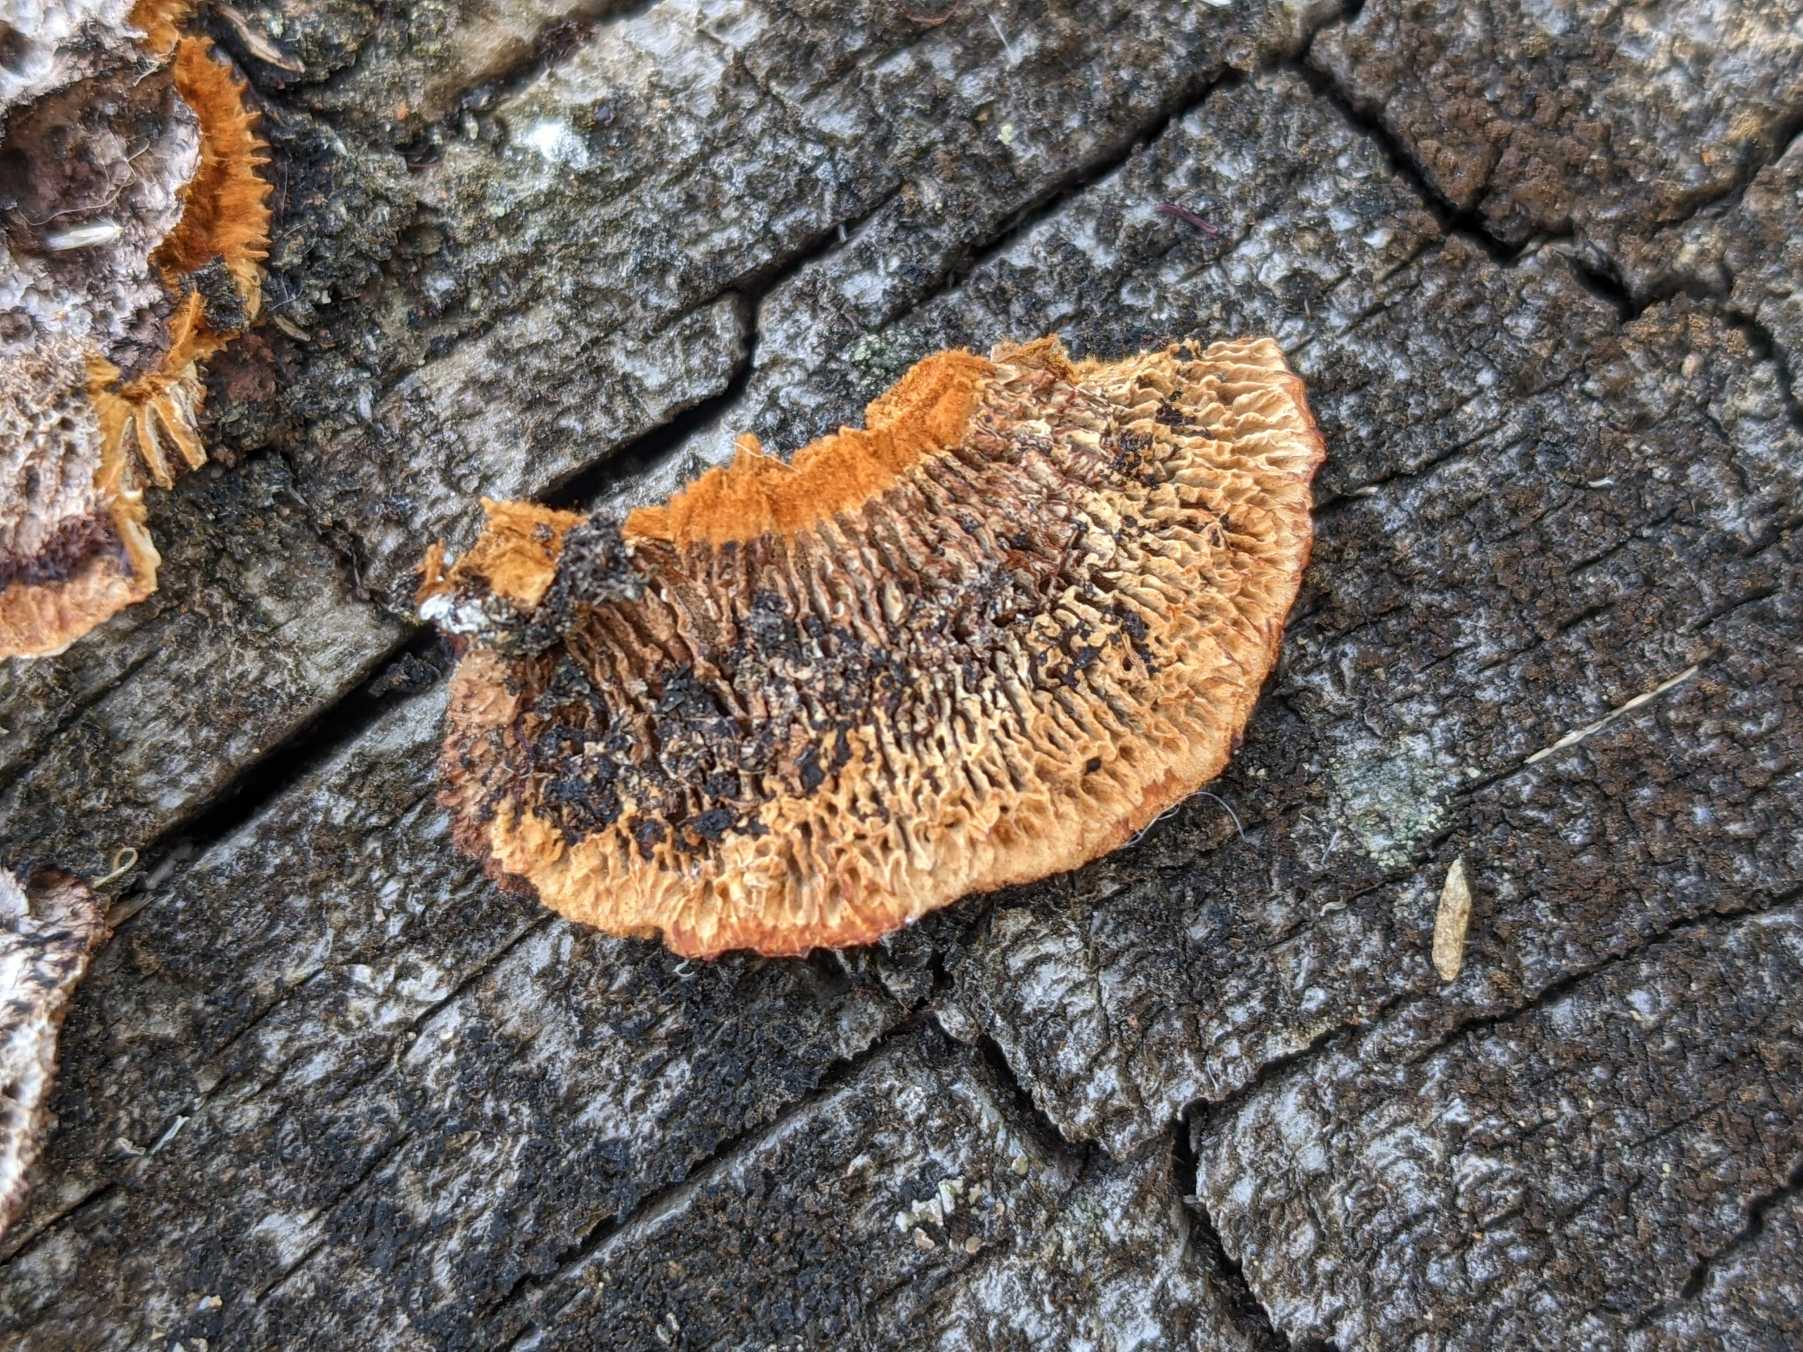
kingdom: Fungi
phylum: Basidiomycota
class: Agaricomycetes
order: Gloeophyllales
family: Gloeophyllaceae
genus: Gloeophyllum
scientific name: Gloeophyllum sepiarium
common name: Fyrre-korkhat
